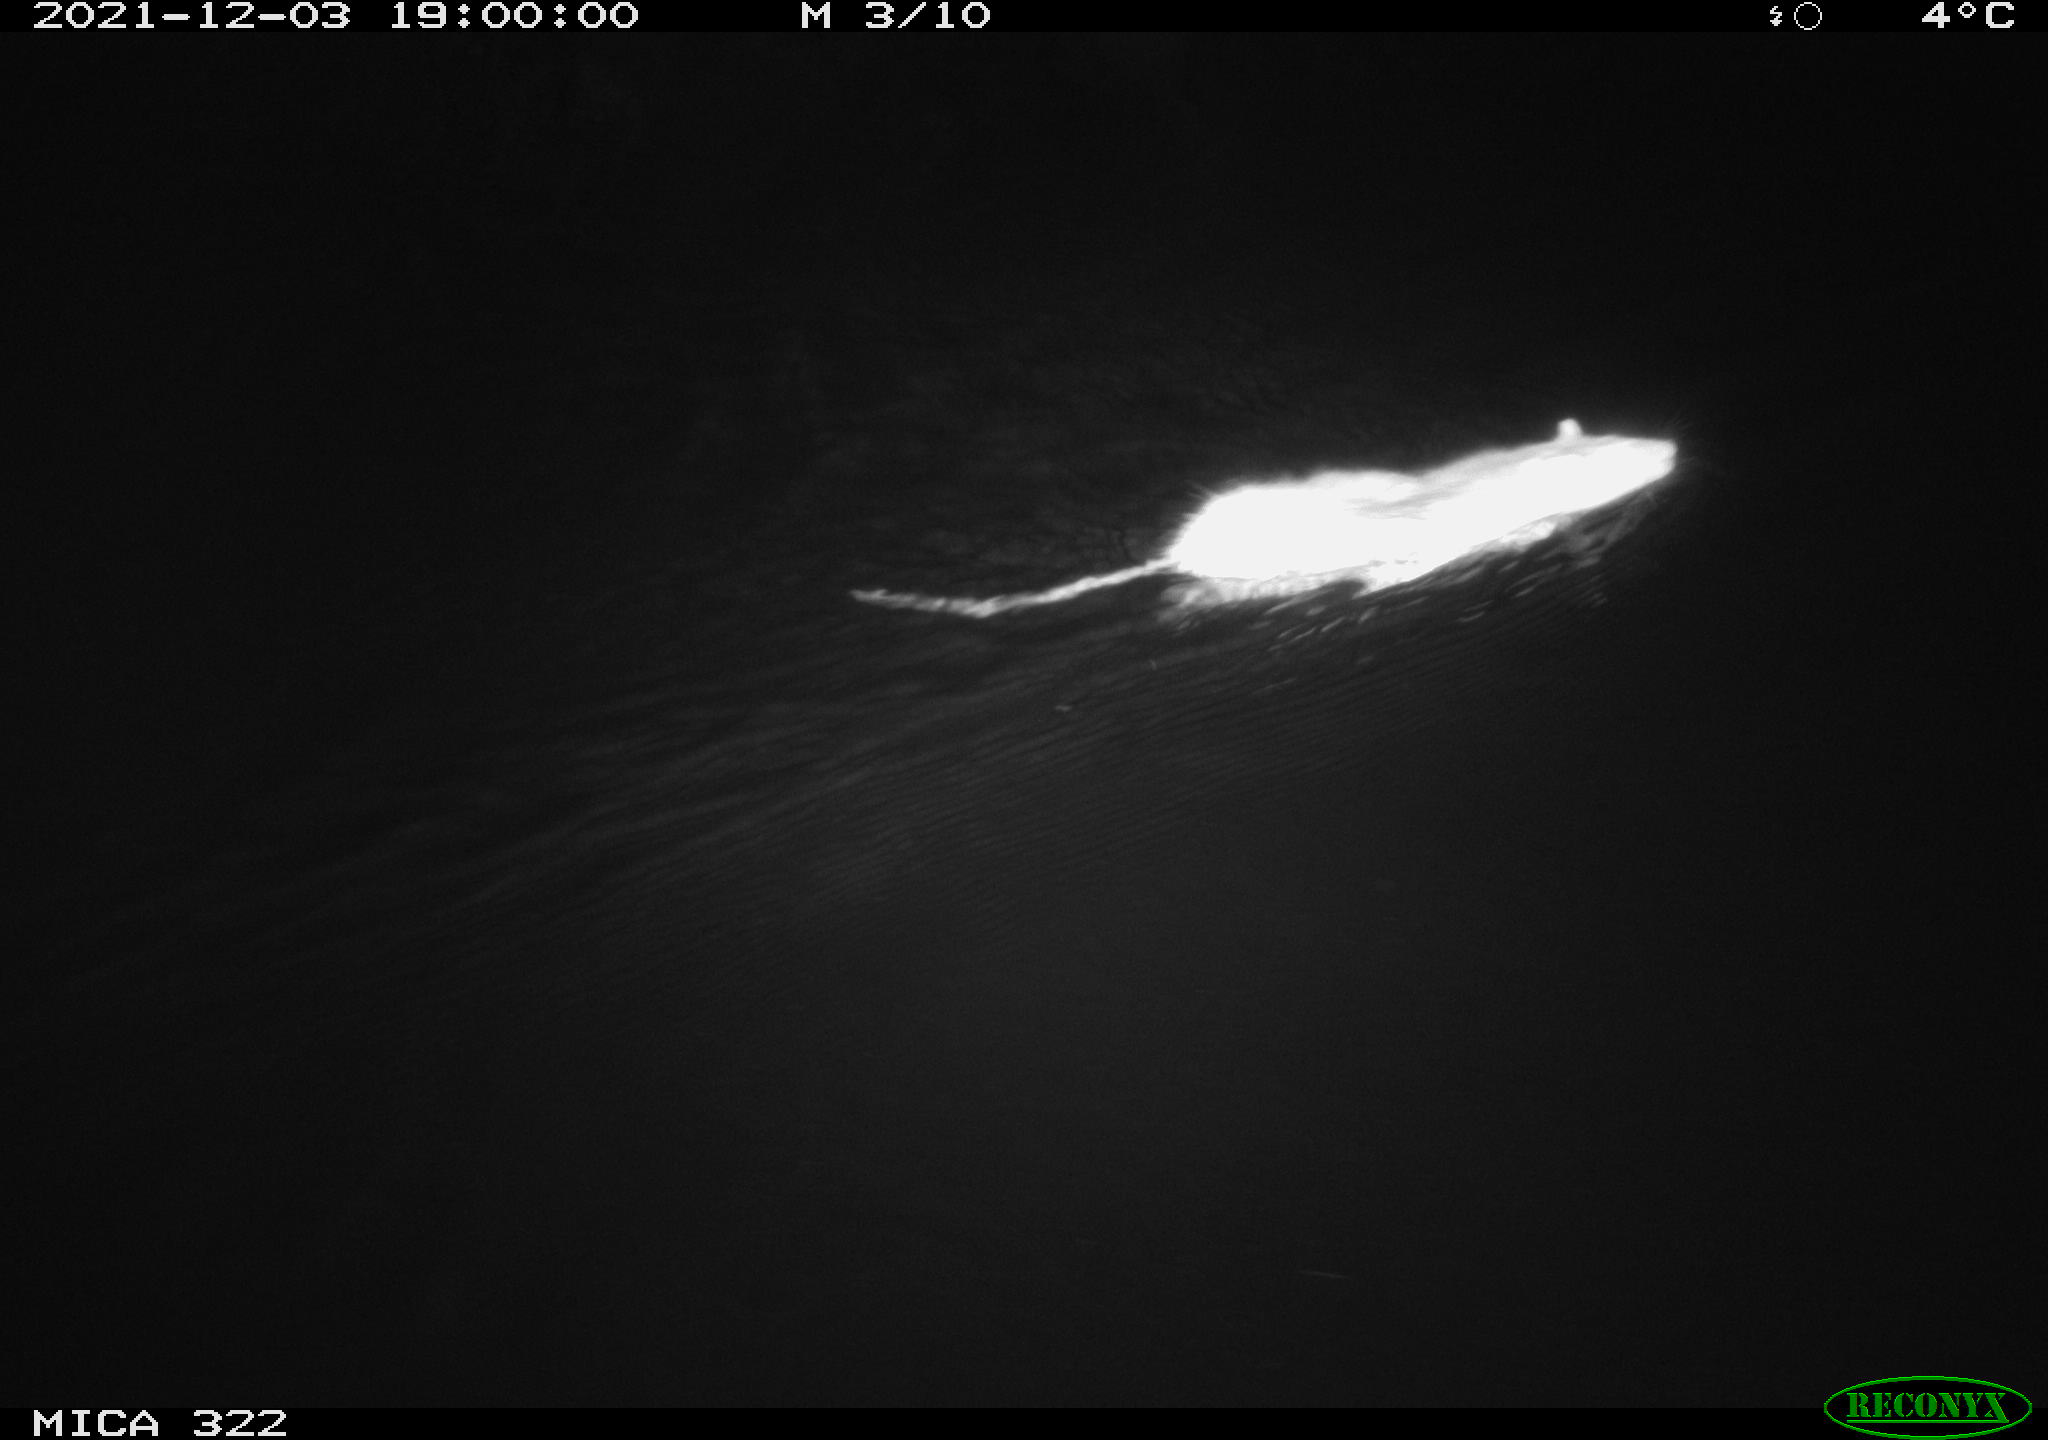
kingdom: Animalia
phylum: Chordata
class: Mammalia
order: Rodentia
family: Muridae
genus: Rattus
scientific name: Rattus norvegicus
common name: Brown rat
